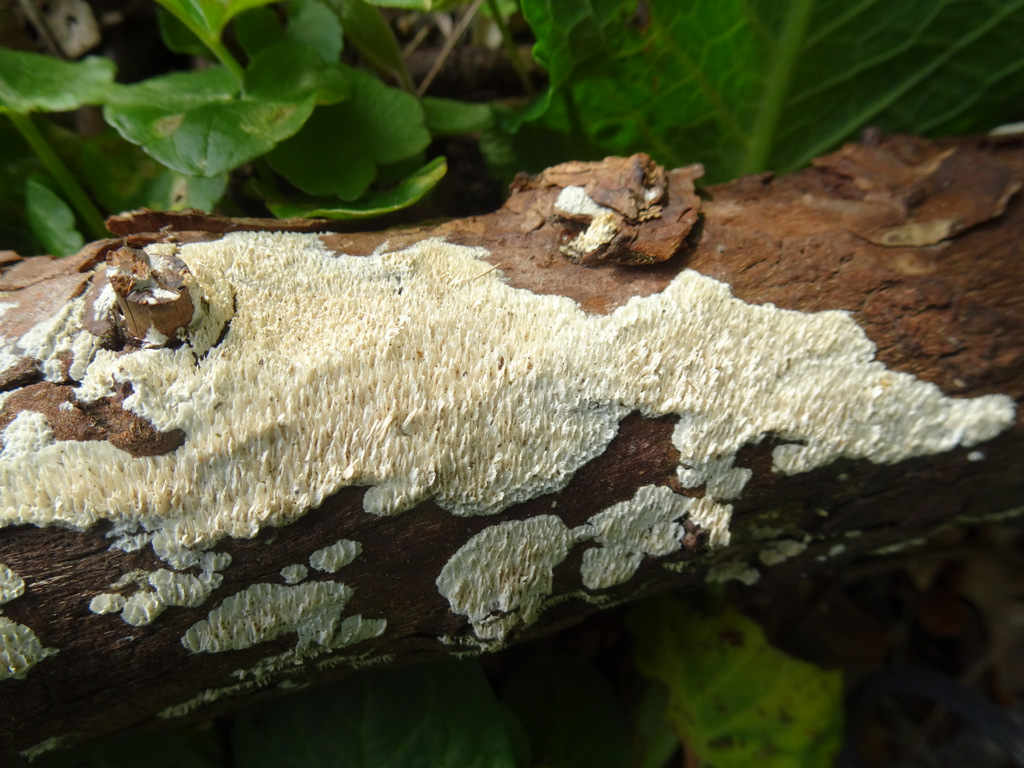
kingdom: Fungi
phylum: Basidiomycota
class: Agaricomycetes
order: Hymenochaetales
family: Schizoporaceae
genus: Schizopora
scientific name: Schizopora paradoxa
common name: hvid tandsvamp
